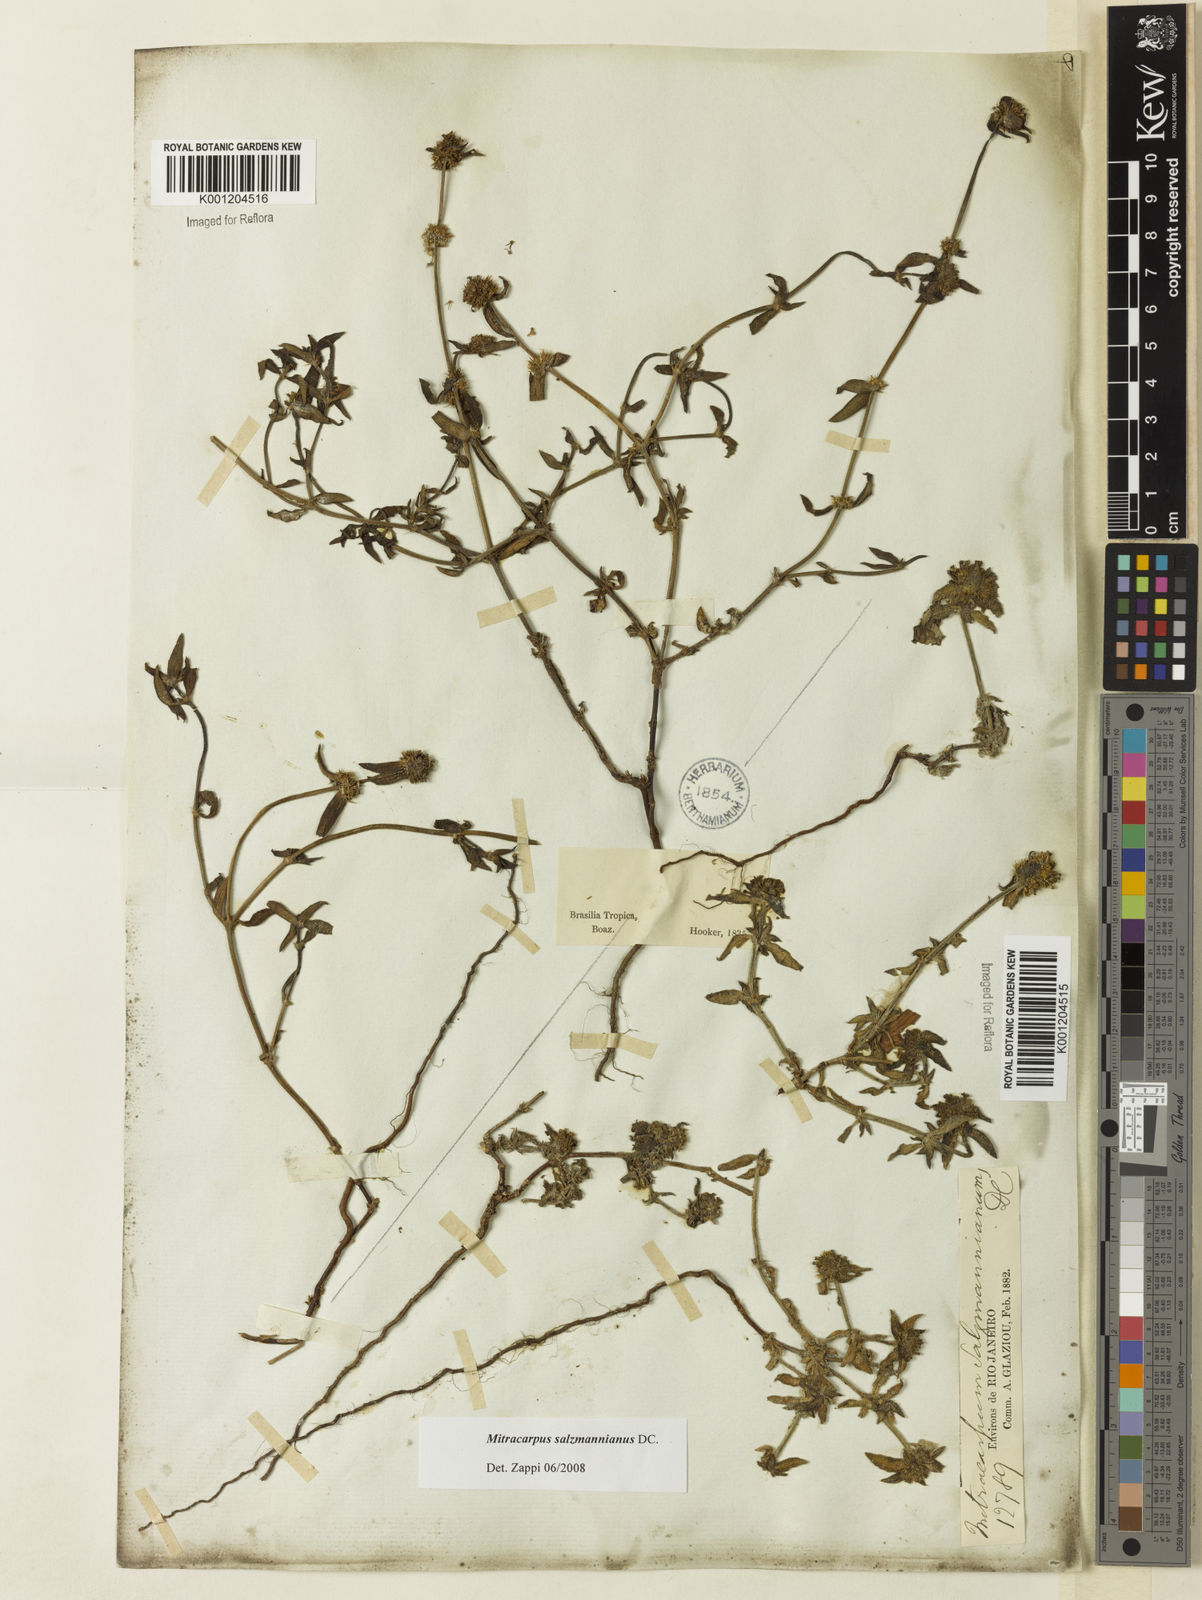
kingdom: Plantae
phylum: Tracheophyta
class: Magnoliopsida
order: Gentianales
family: Rubiaceae
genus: Mitracarpus
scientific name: Mitracarpus salzmannianus
